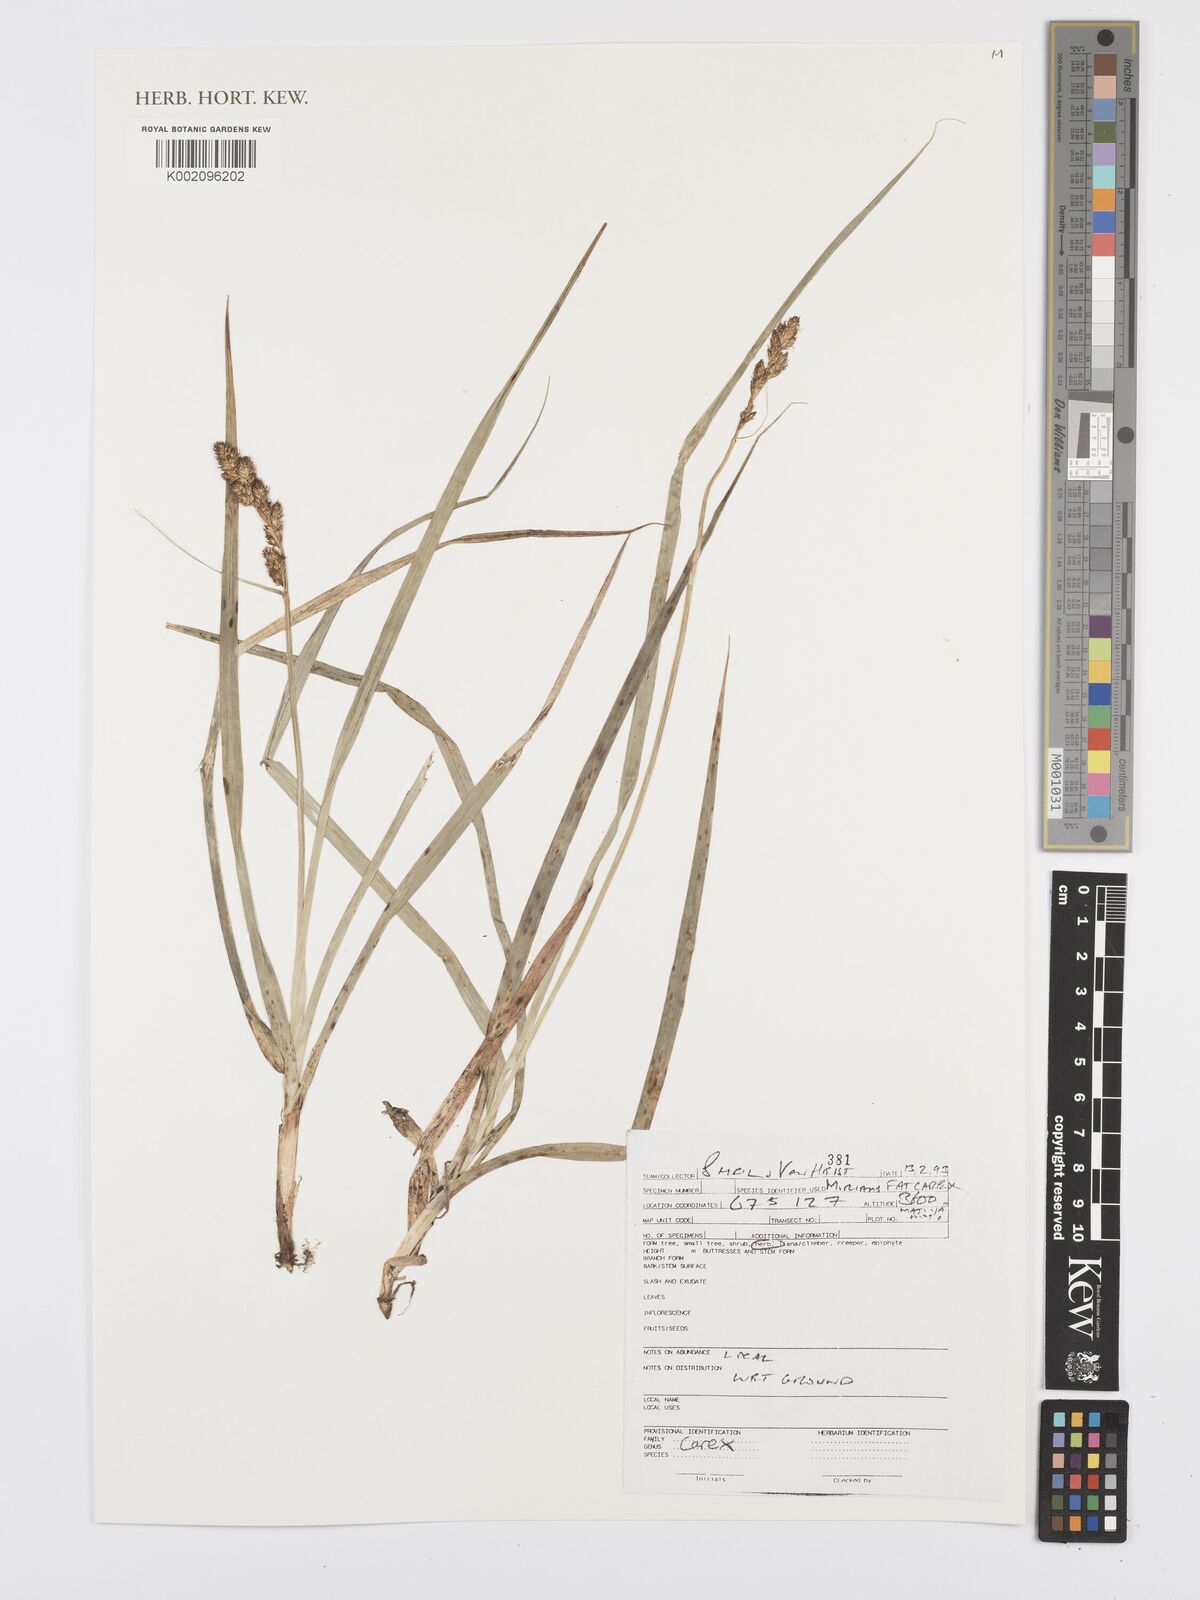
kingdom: Plantae
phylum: Tracheophyta
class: Liliopsida
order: Poales
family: Cyperaceae
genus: Carex
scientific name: Carex
